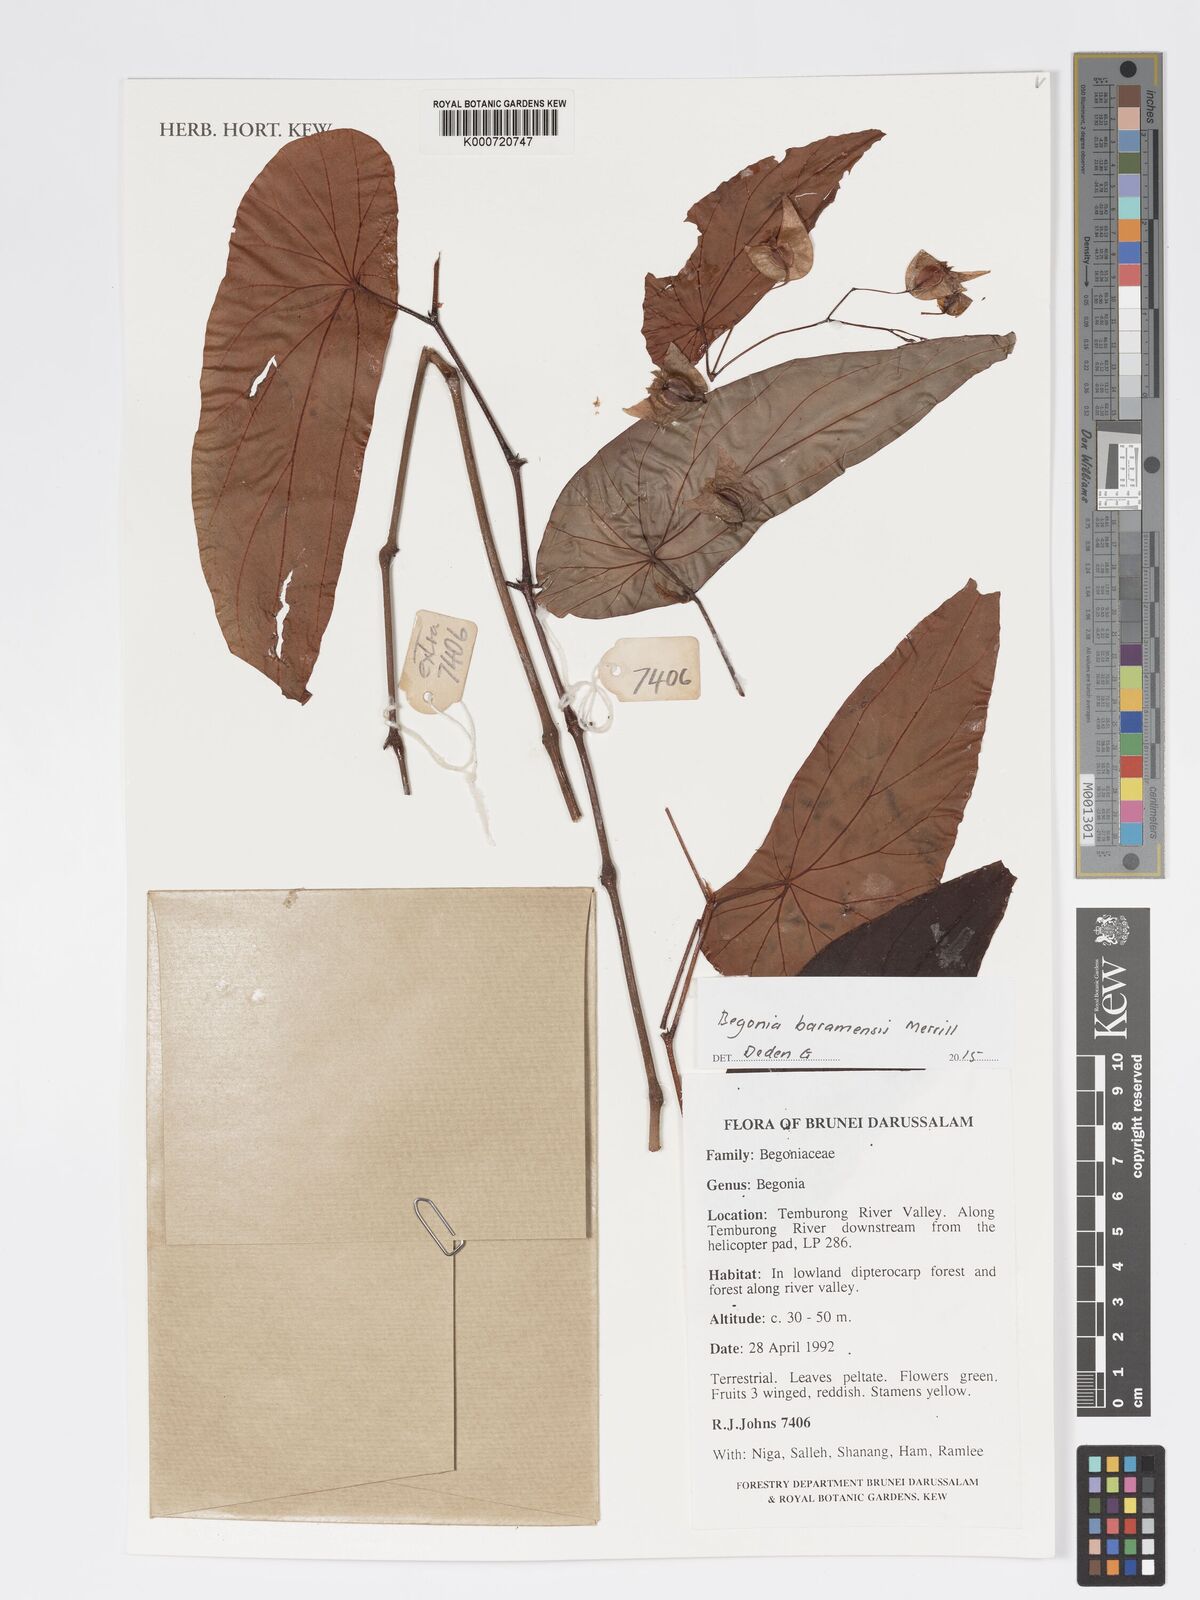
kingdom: Plantae
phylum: Tracheophyta
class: Magnoliopsida
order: Cucurbitales
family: Begoniaceae
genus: Begonia
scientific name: Begonia baramensis
